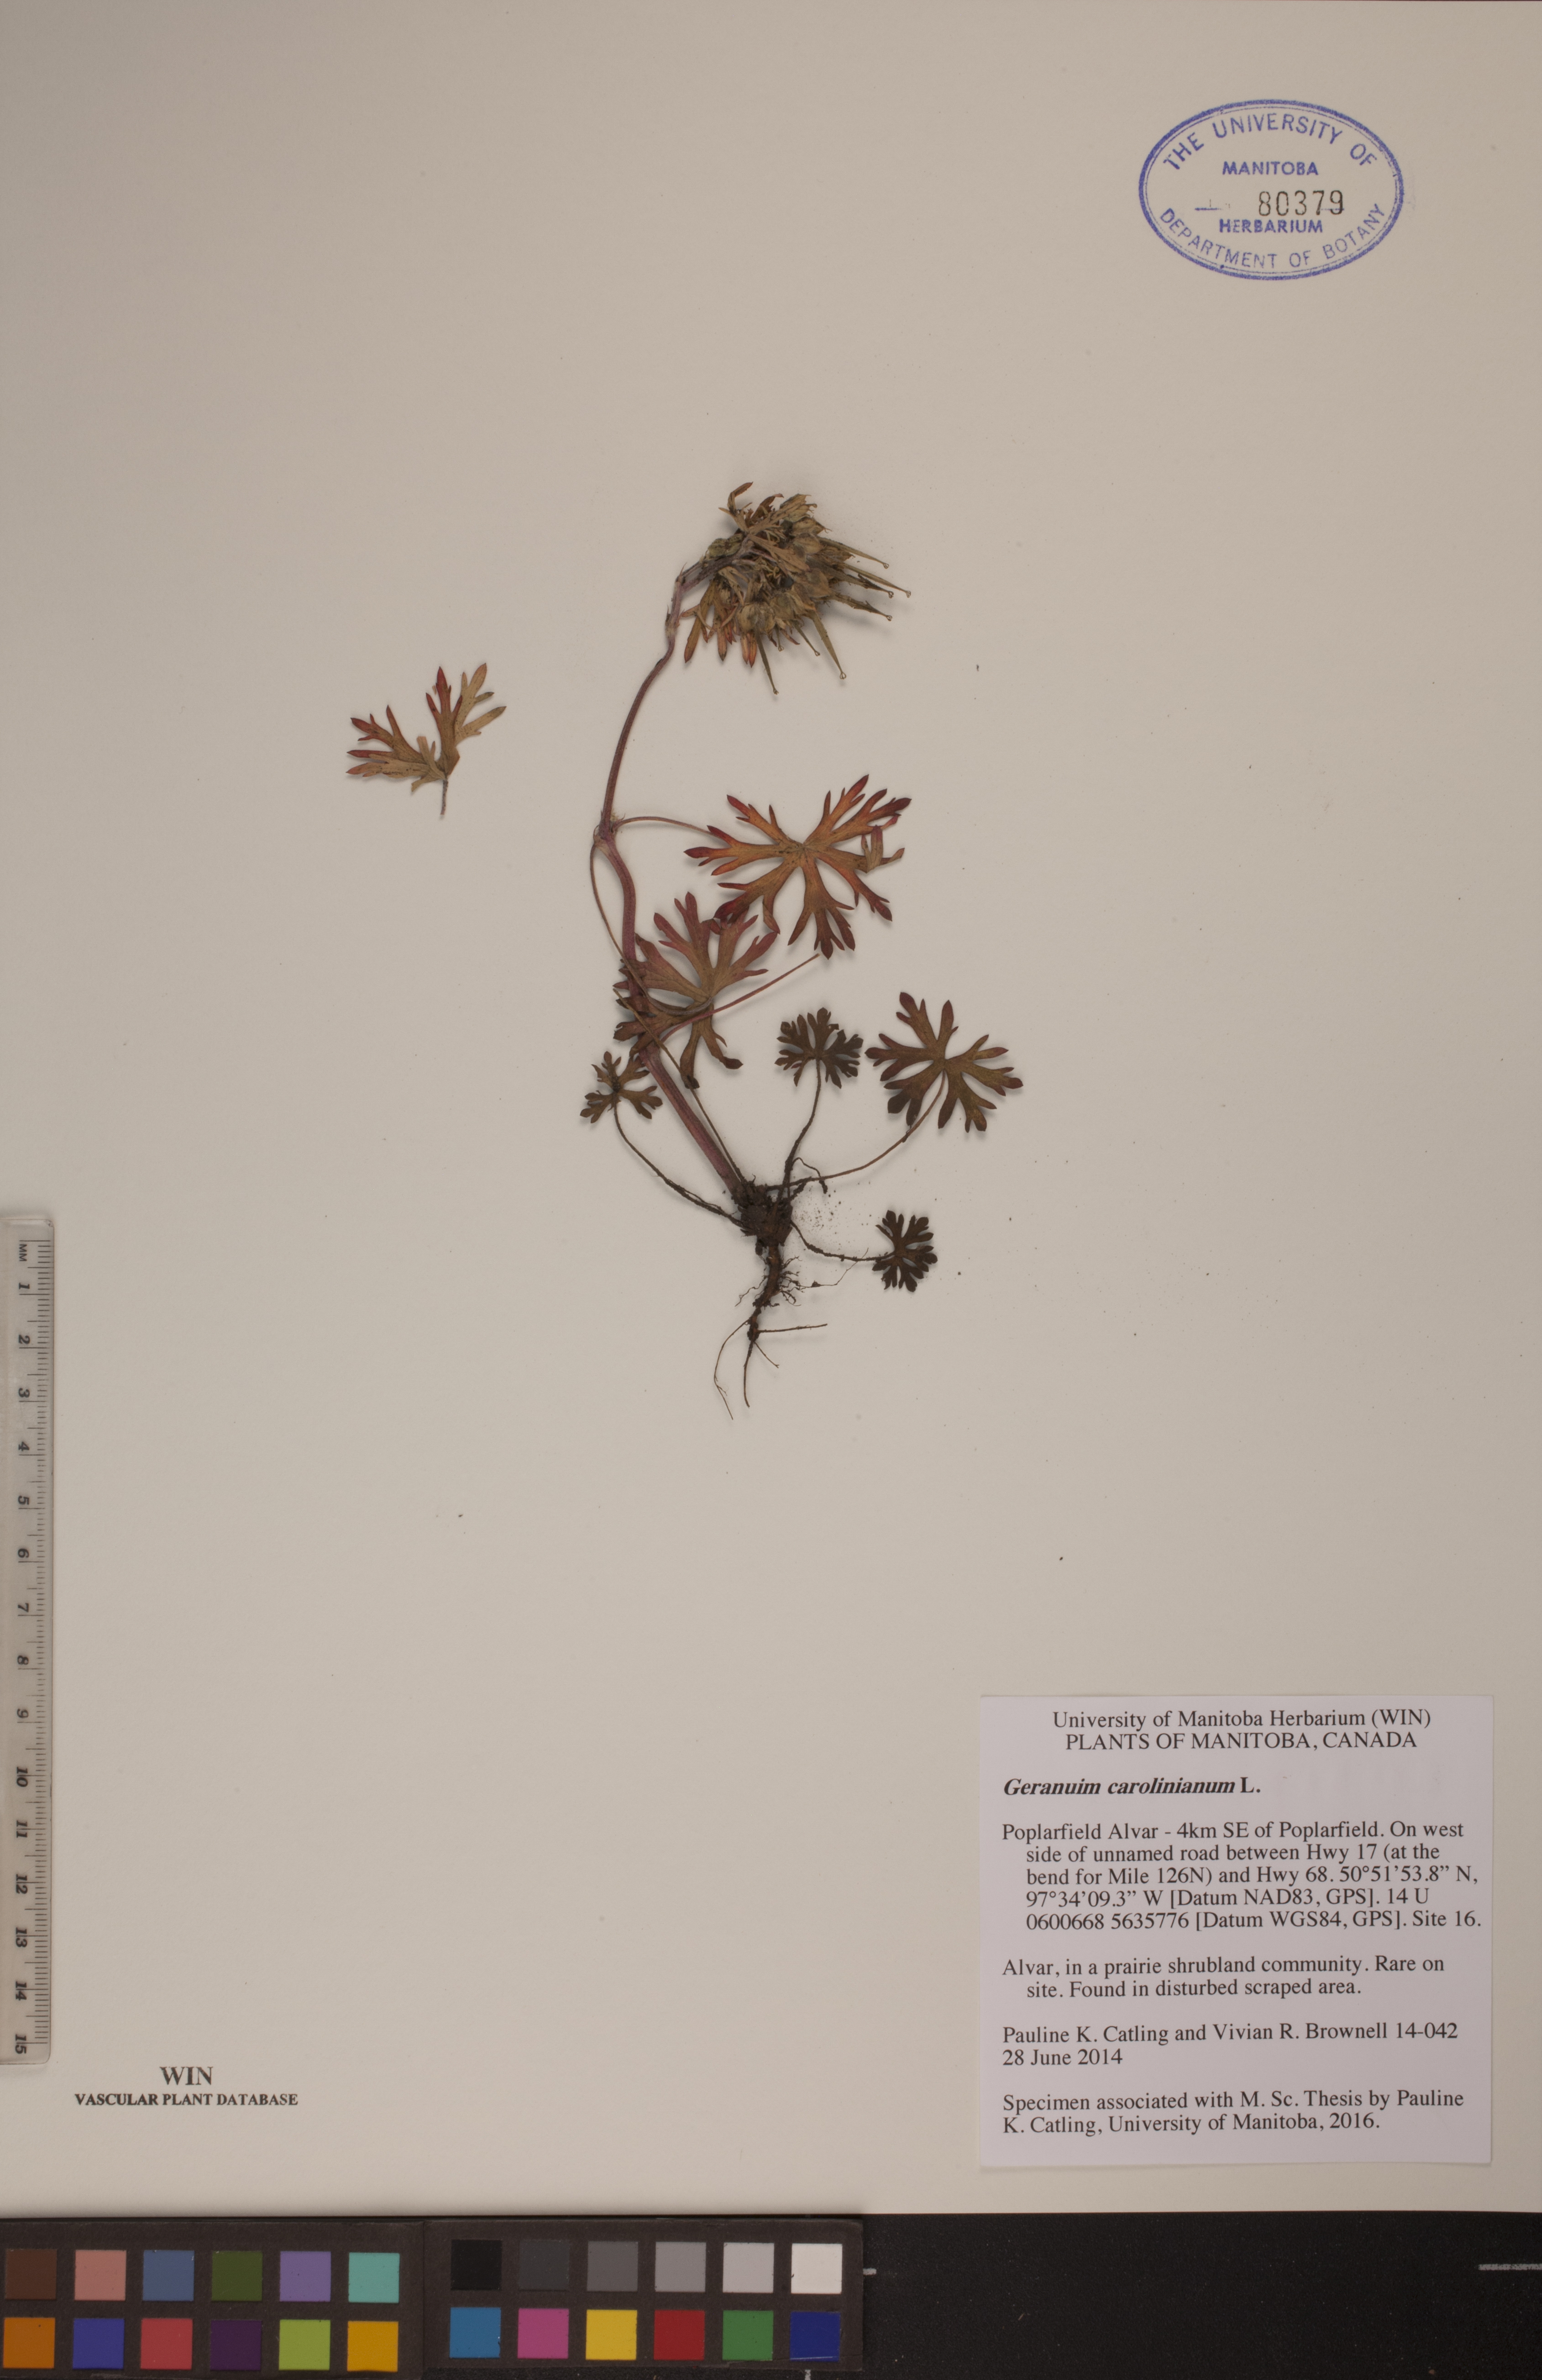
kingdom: Plantae
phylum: Tracheophyta
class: Magnoliopsida
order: Geraniales
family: Geraniaceae
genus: Geranium
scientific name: Geranium carolinianum
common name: Carolina crane's-bill
